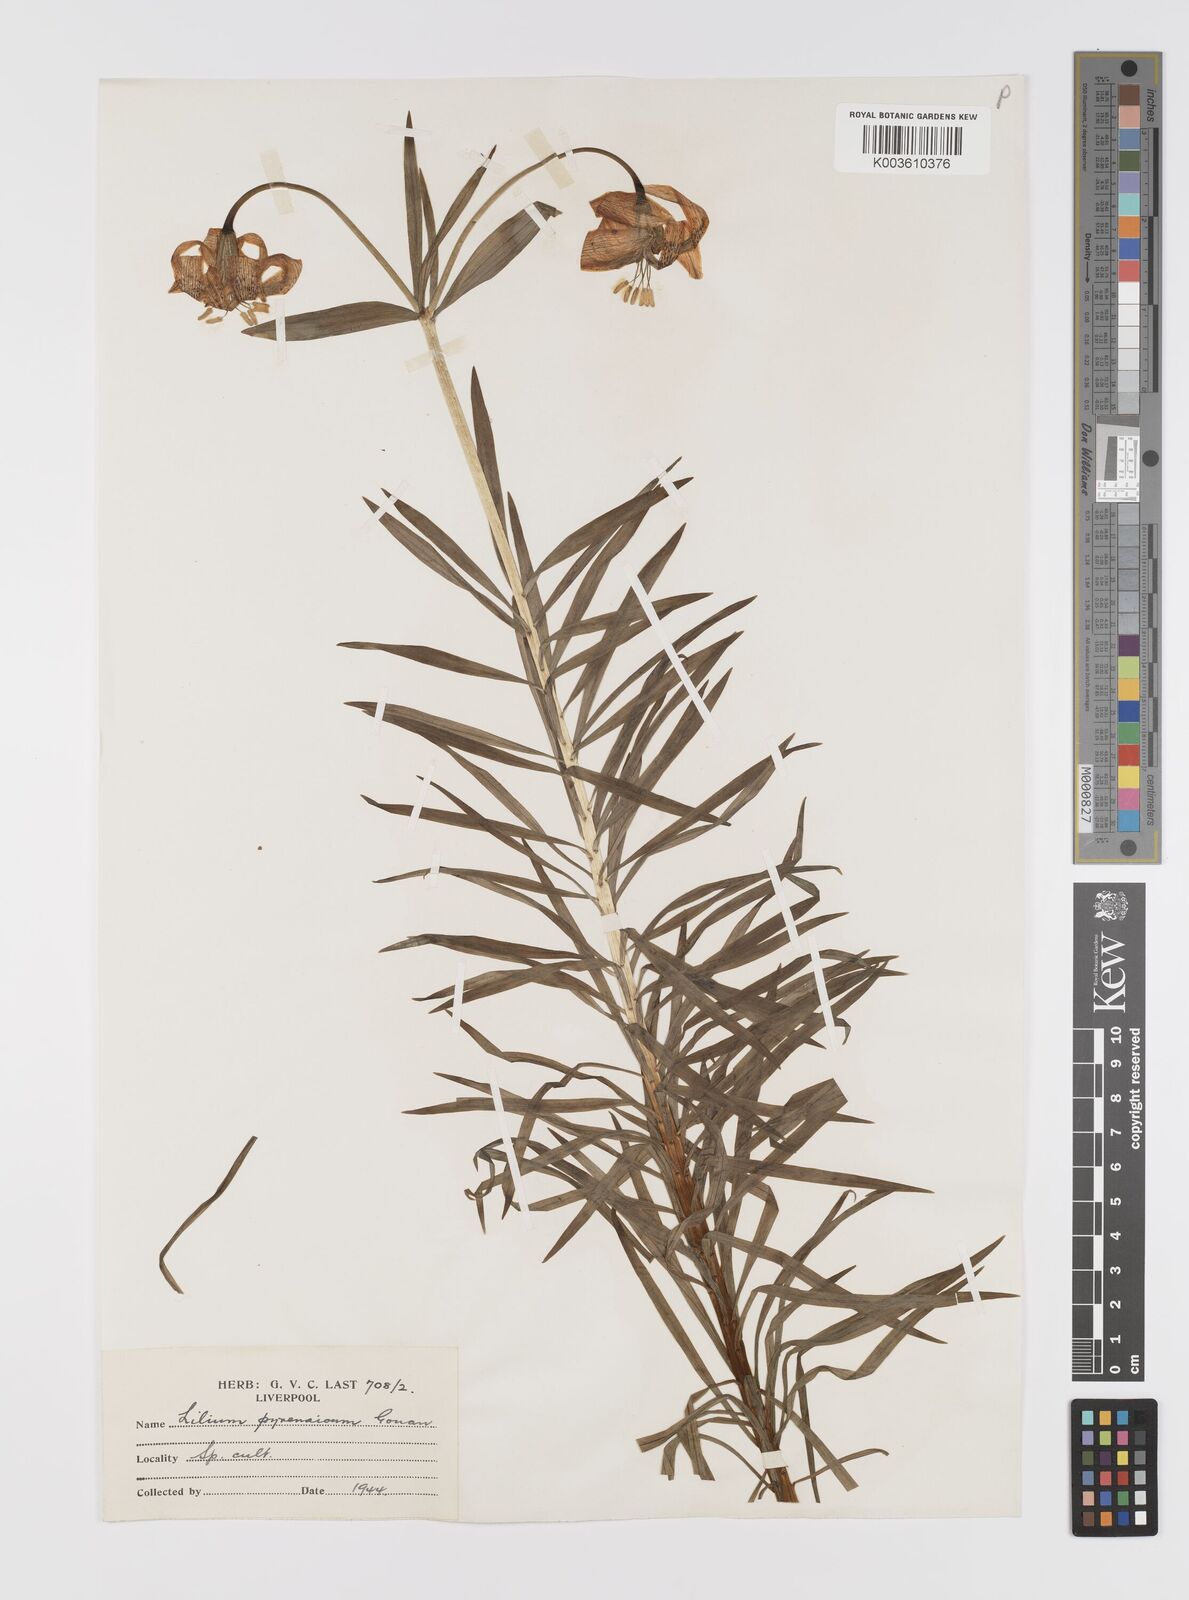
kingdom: Plantae
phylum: Tracheophyta
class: Liliopsida
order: Liliales
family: Liliaceae
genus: Lilium
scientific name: Lilium pyrenaicum
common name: Pyrenean lily
